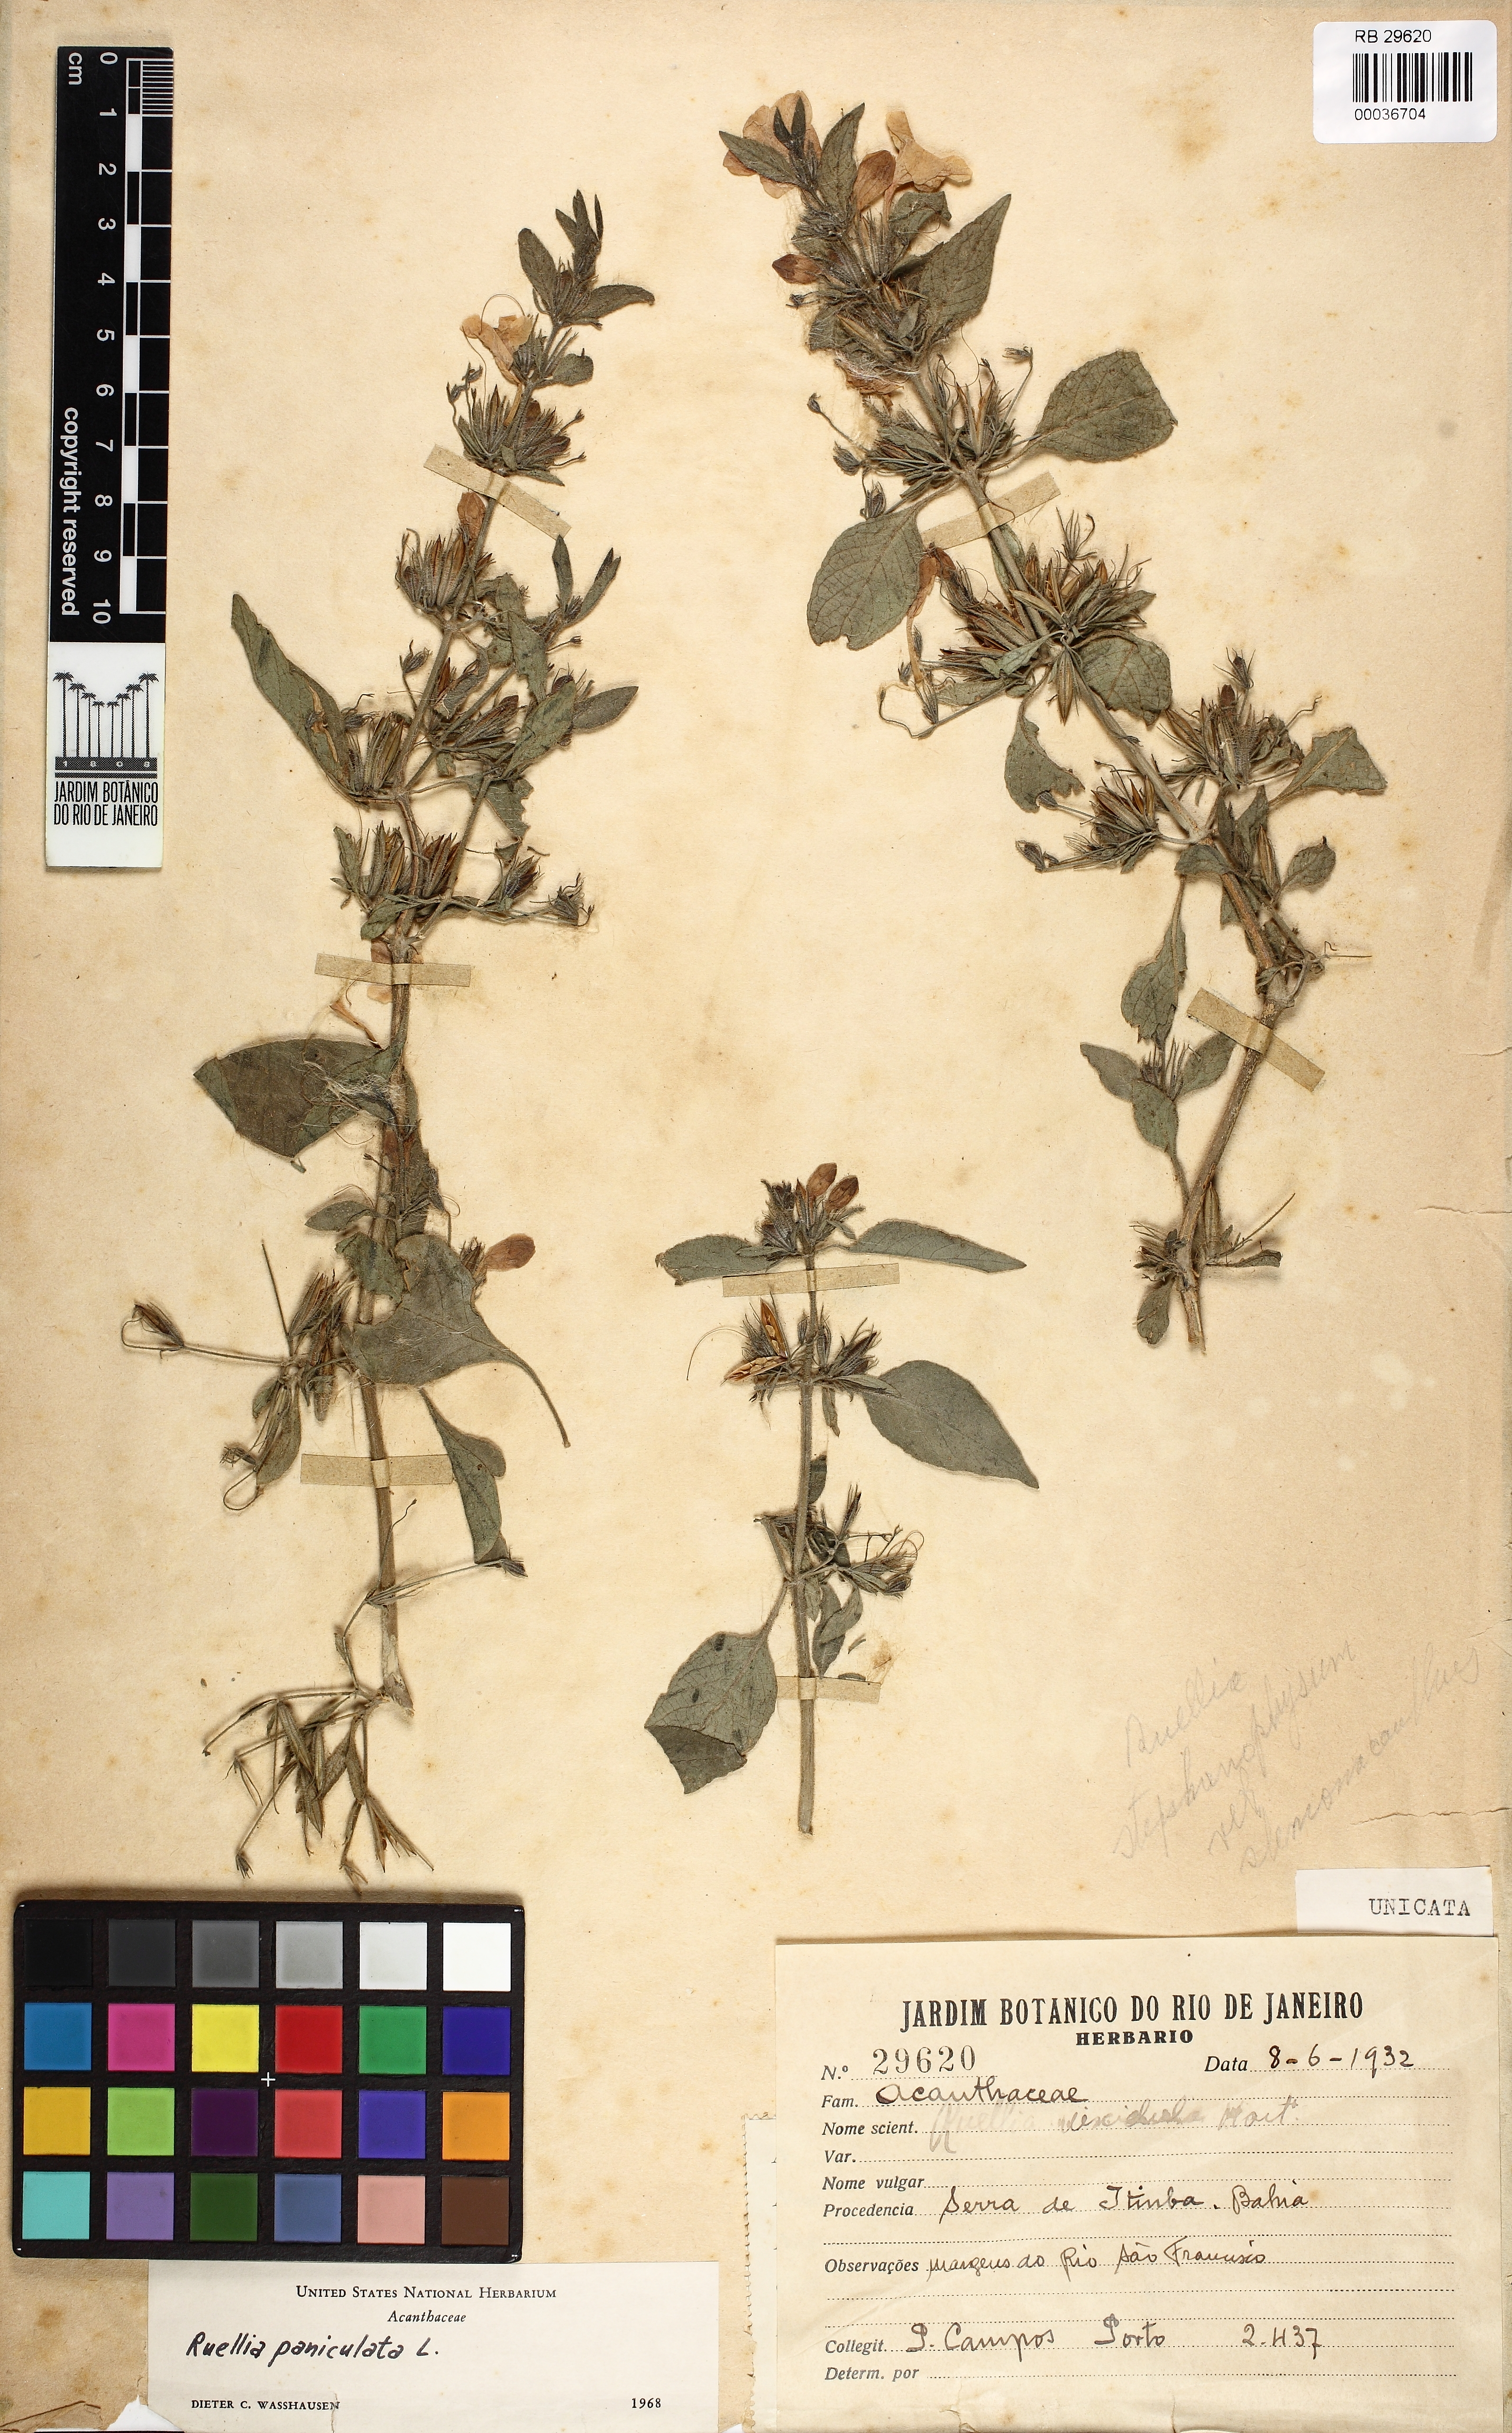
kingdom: Plantae
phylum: Tracheophyta
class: Magnoliopsida
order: Lamiales
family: Acanthaceae
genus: Ruellia
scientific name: Ruellia paniculata
